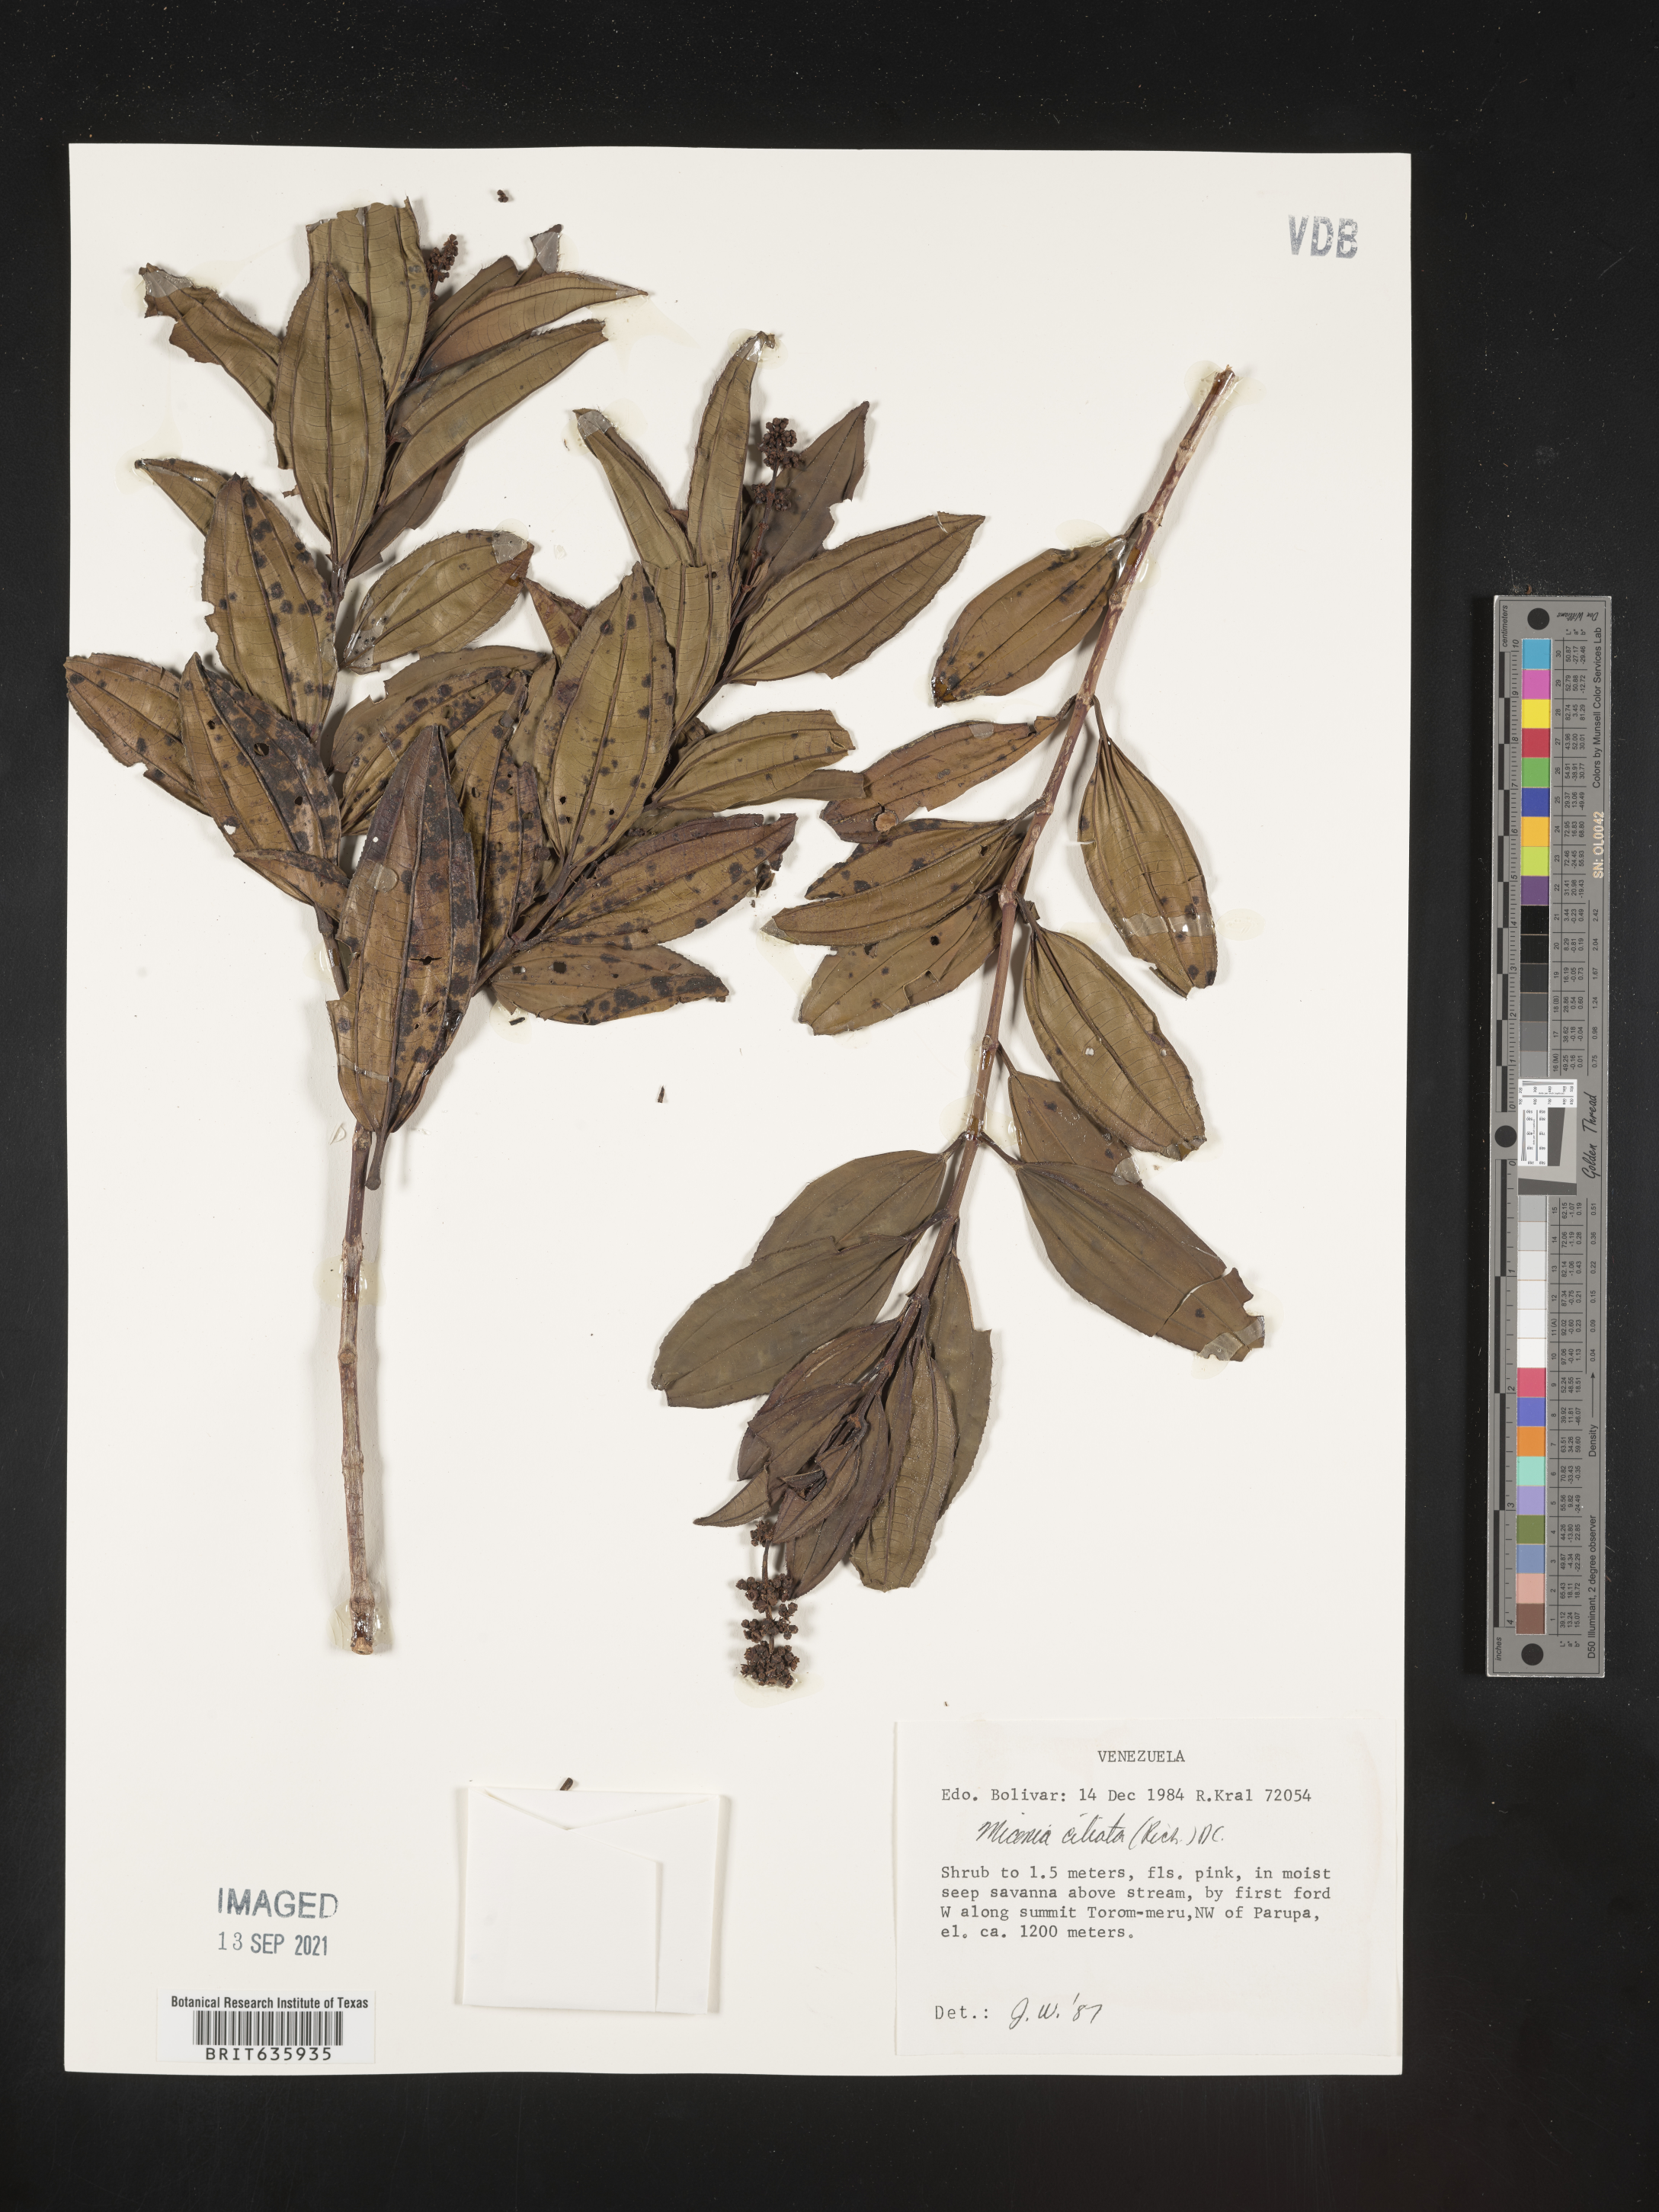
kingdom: Plantae
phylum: Tracheophyta
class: Magnoliopsida
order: Myrtales
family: Melastomataceae
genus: Miconia
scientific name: Miconia
